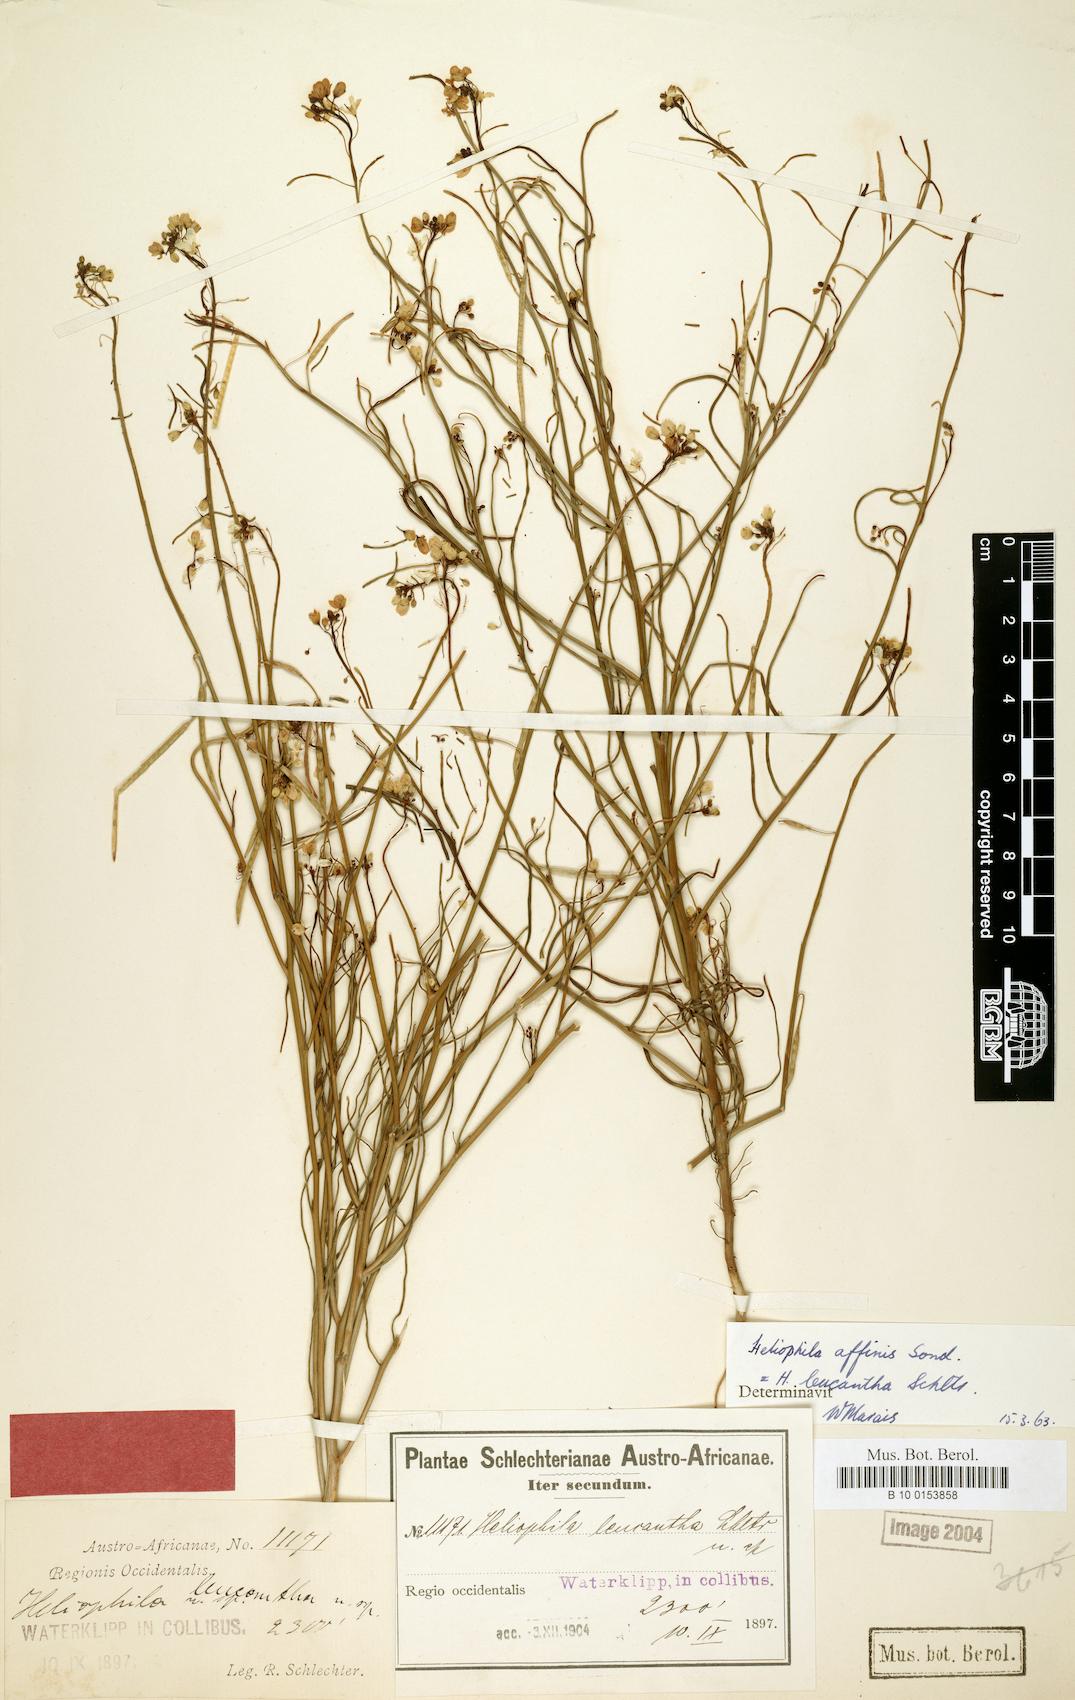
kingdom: Plantae
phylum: Tracheophyta
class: Magnoliopsida
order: Brassicales
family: Brassicaceae
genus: Heliophila
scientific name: Heliophila affinis
